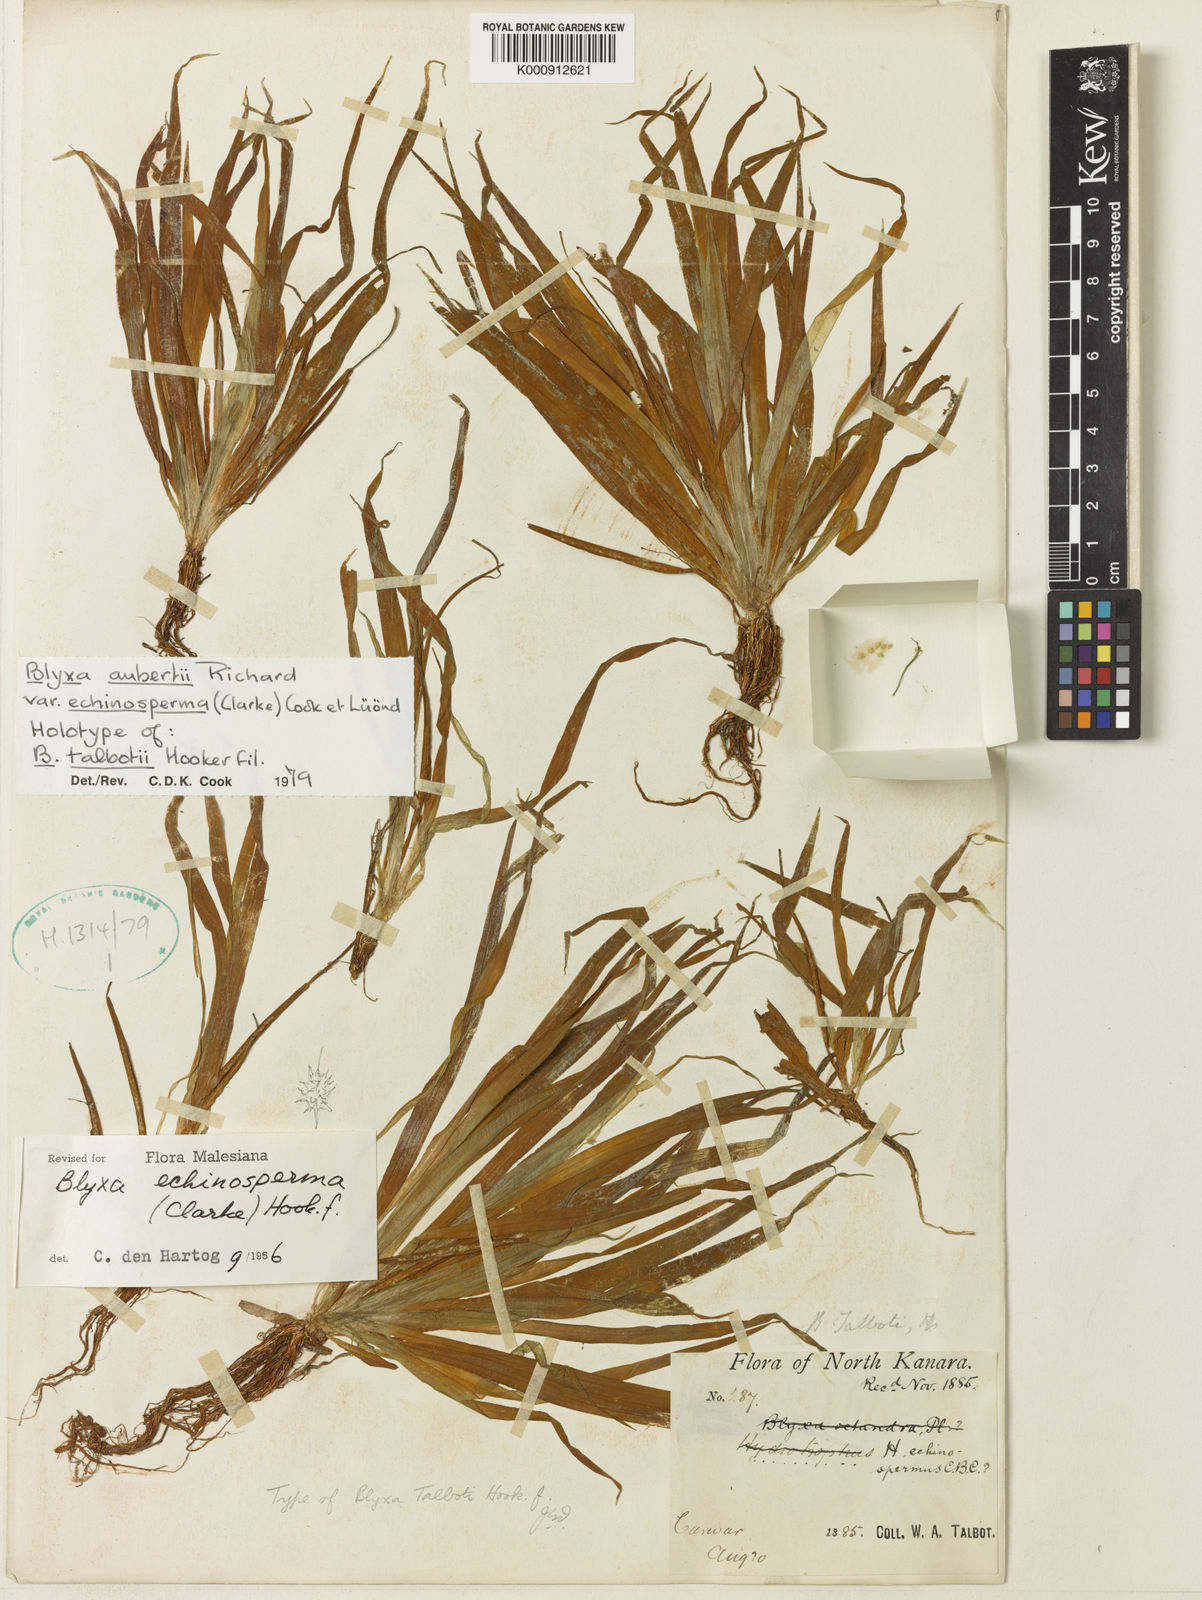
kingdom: Plantae
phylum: Tracheophyta
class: Liliopsida
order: Alismatales
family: Hydrocharitaceae
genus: Blyxa
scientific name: Blyxa echinosperma
